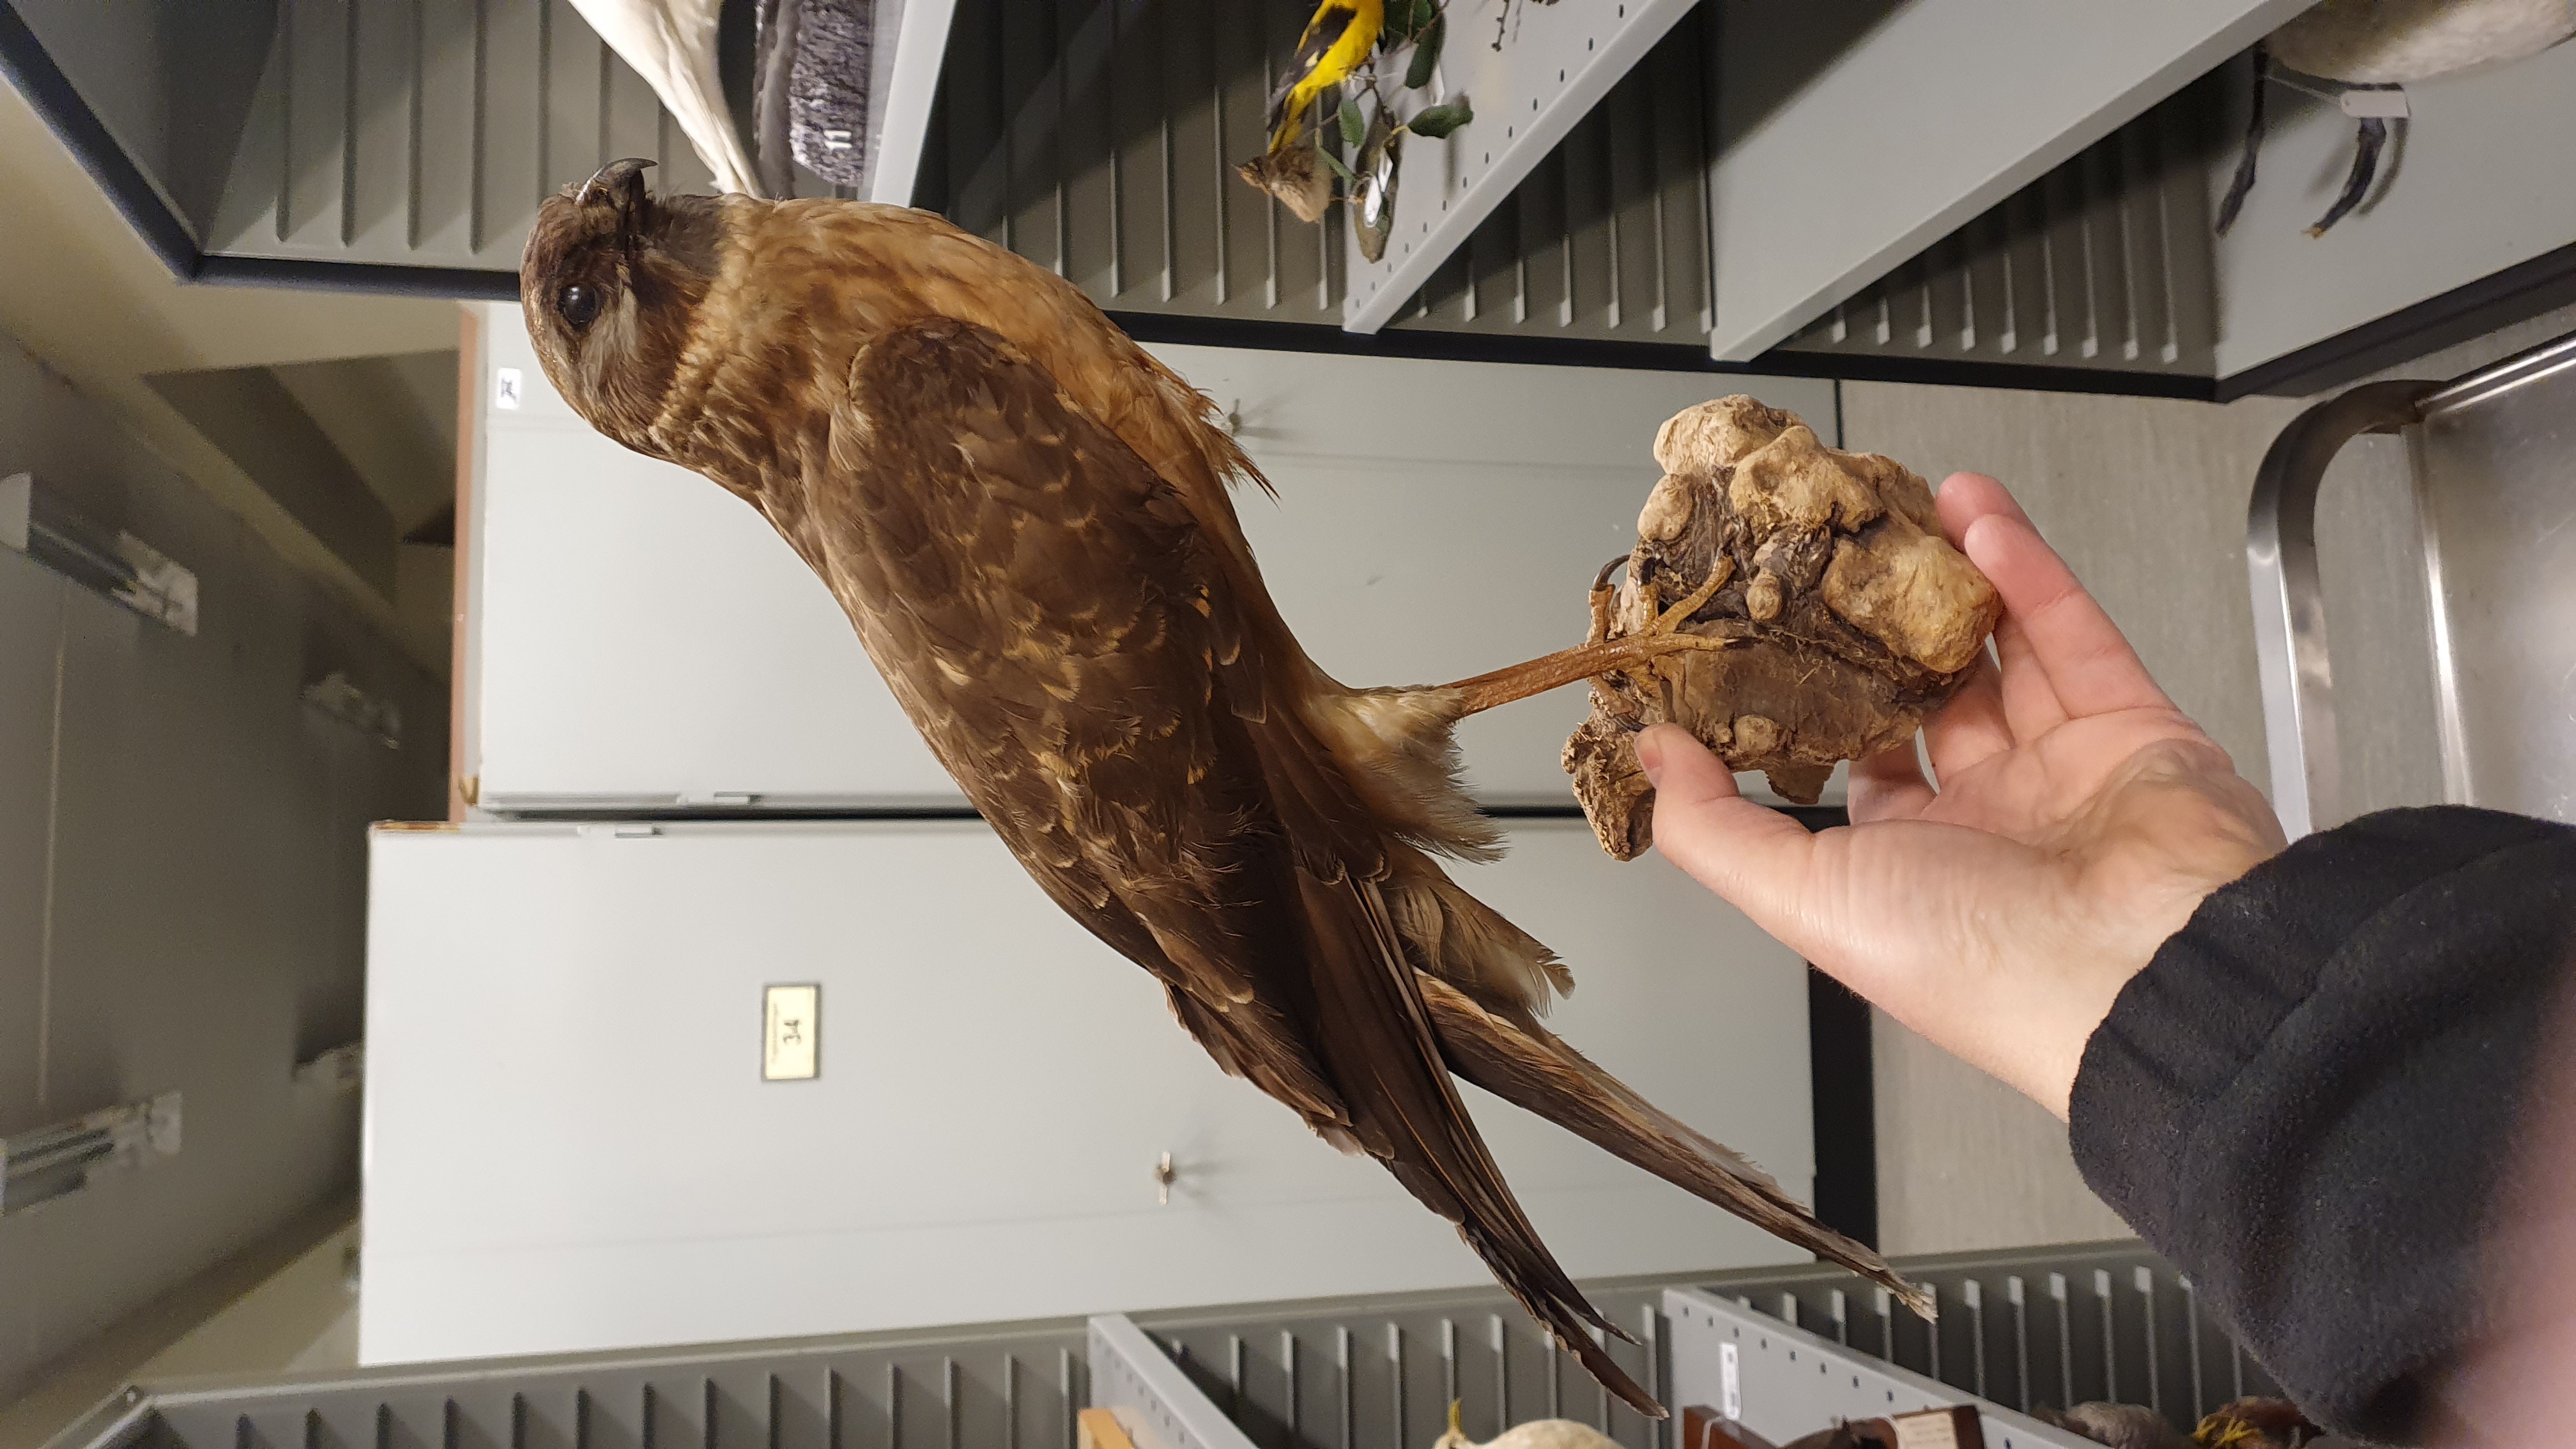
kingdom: Animalia
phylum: Chordata
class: Aves
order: Accipitriformes
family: Accipitridae
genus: Circus
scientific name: Circus cyaneus
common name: Hen harrier
